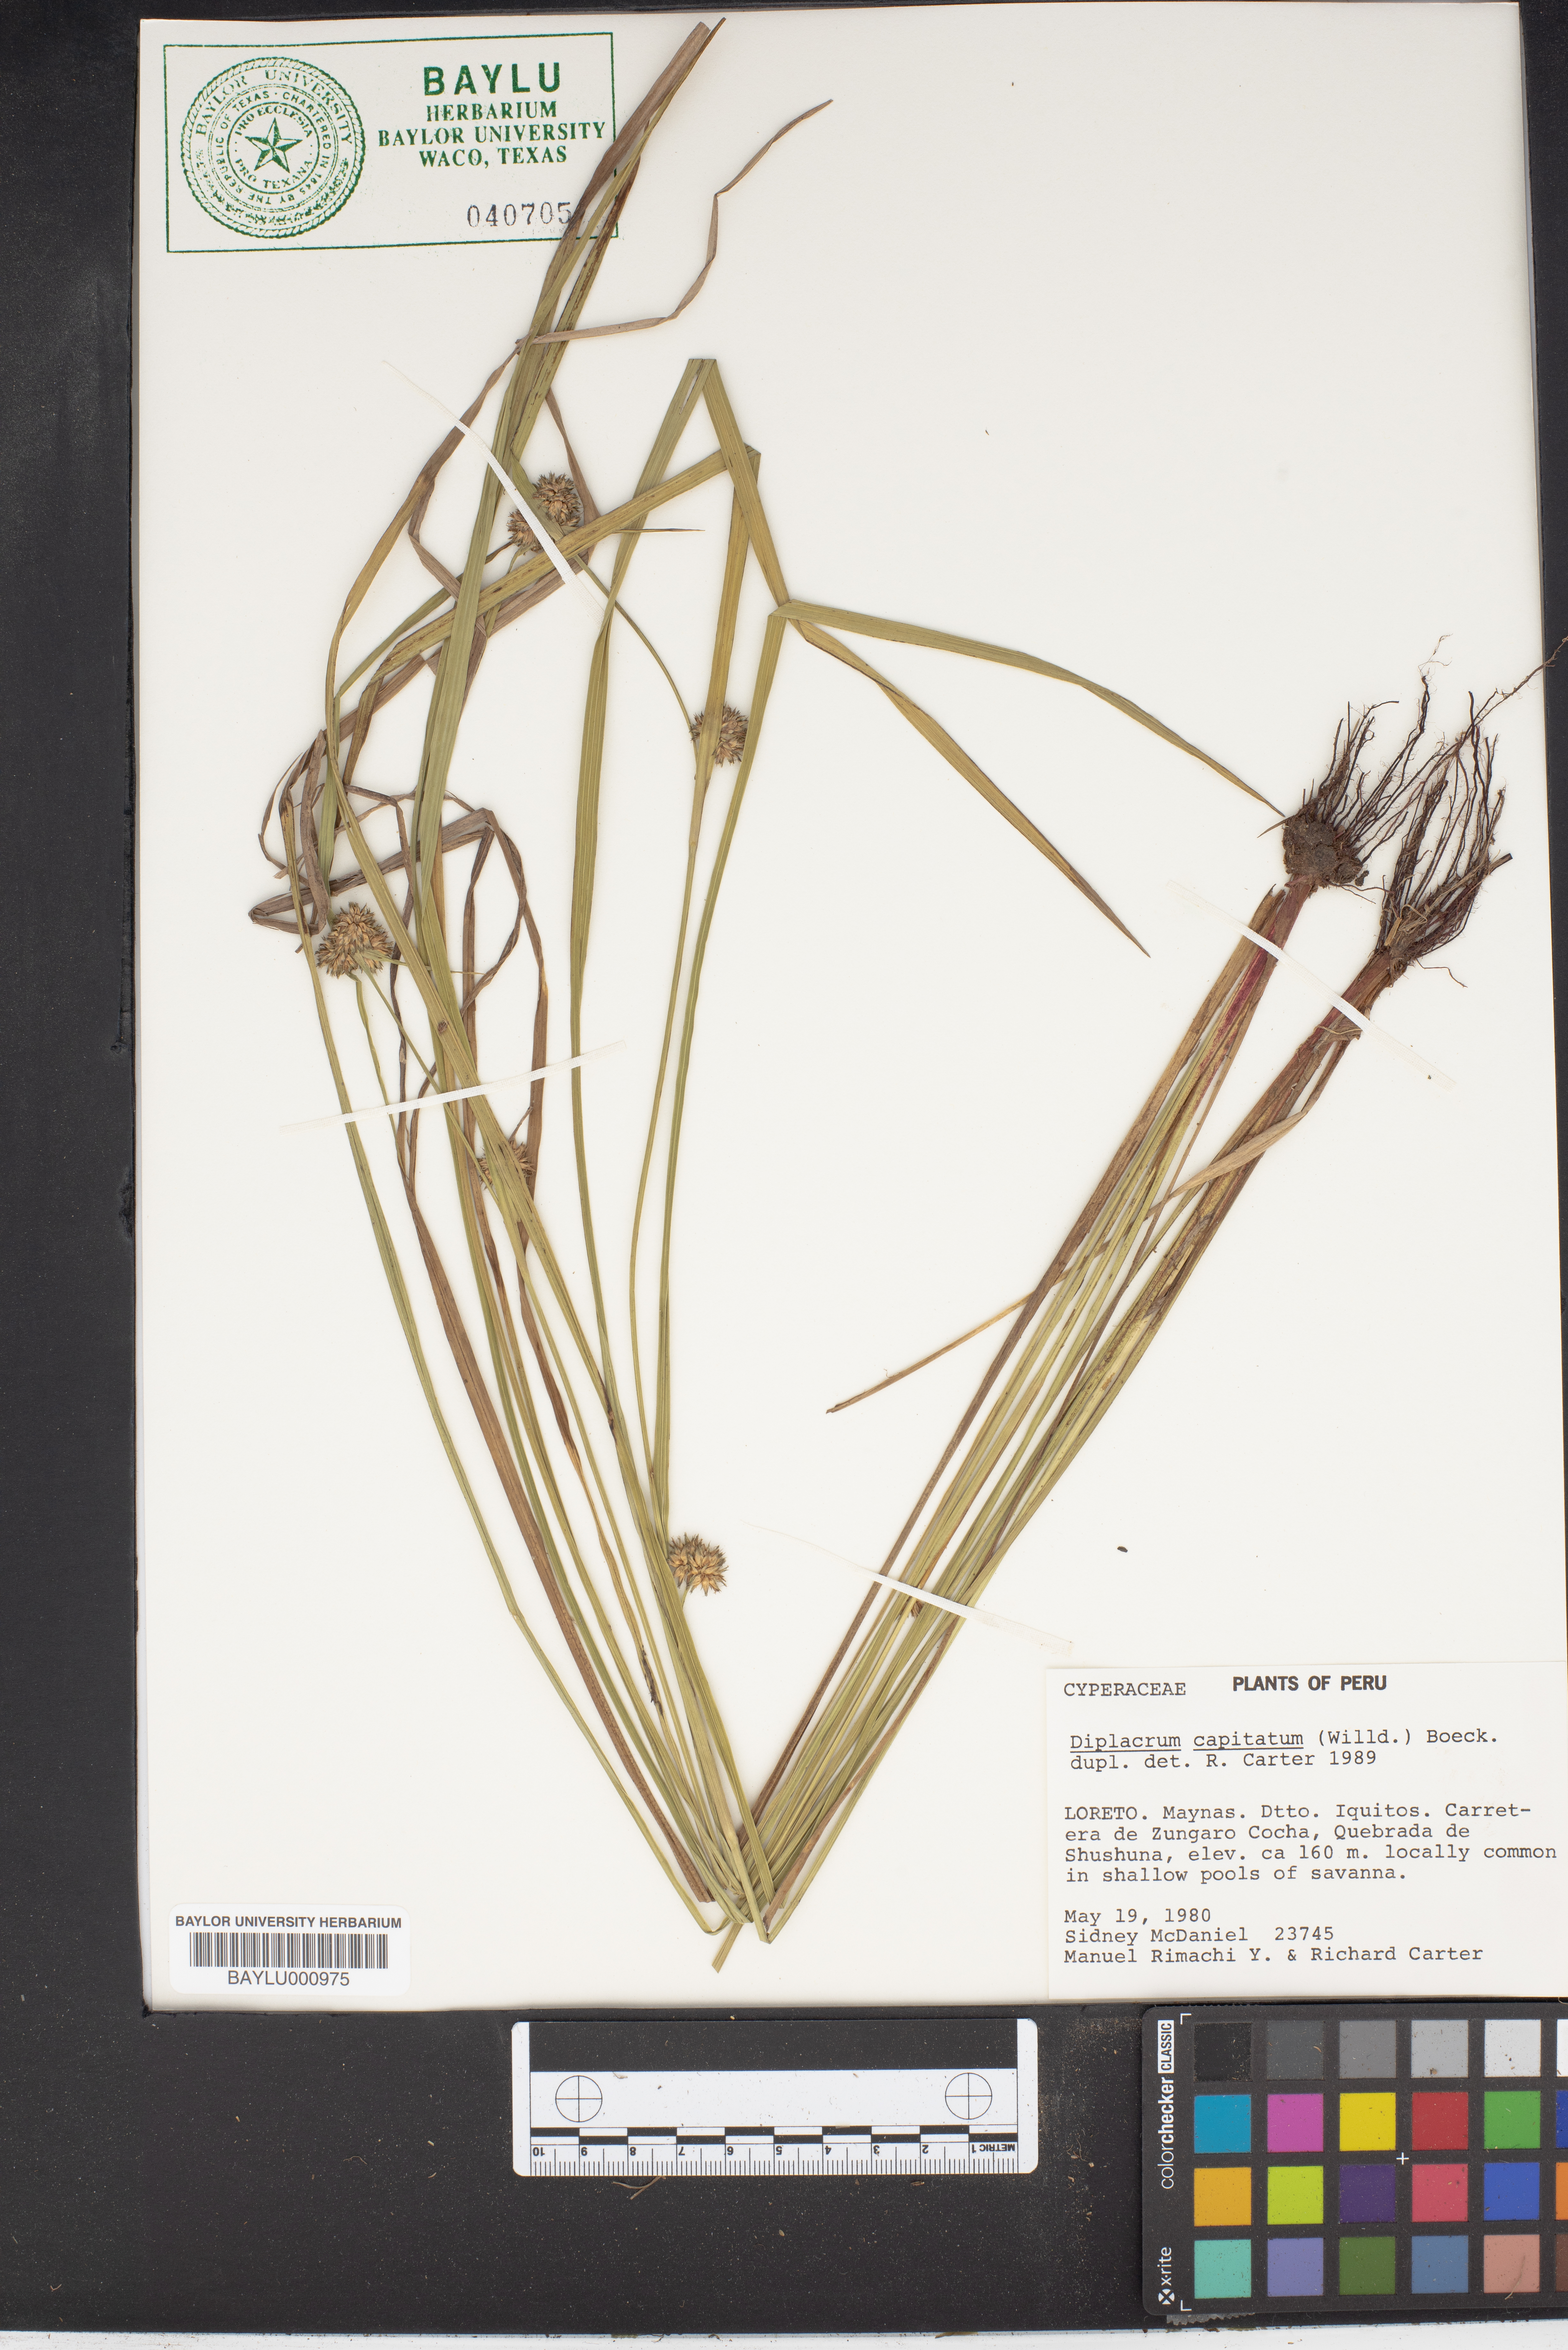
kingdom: Plantae
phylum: Tracheophyta
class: Liliopsida
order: Poales
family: Cyperaceae
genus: Diplacrum
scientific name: Diplacrum capitatum
